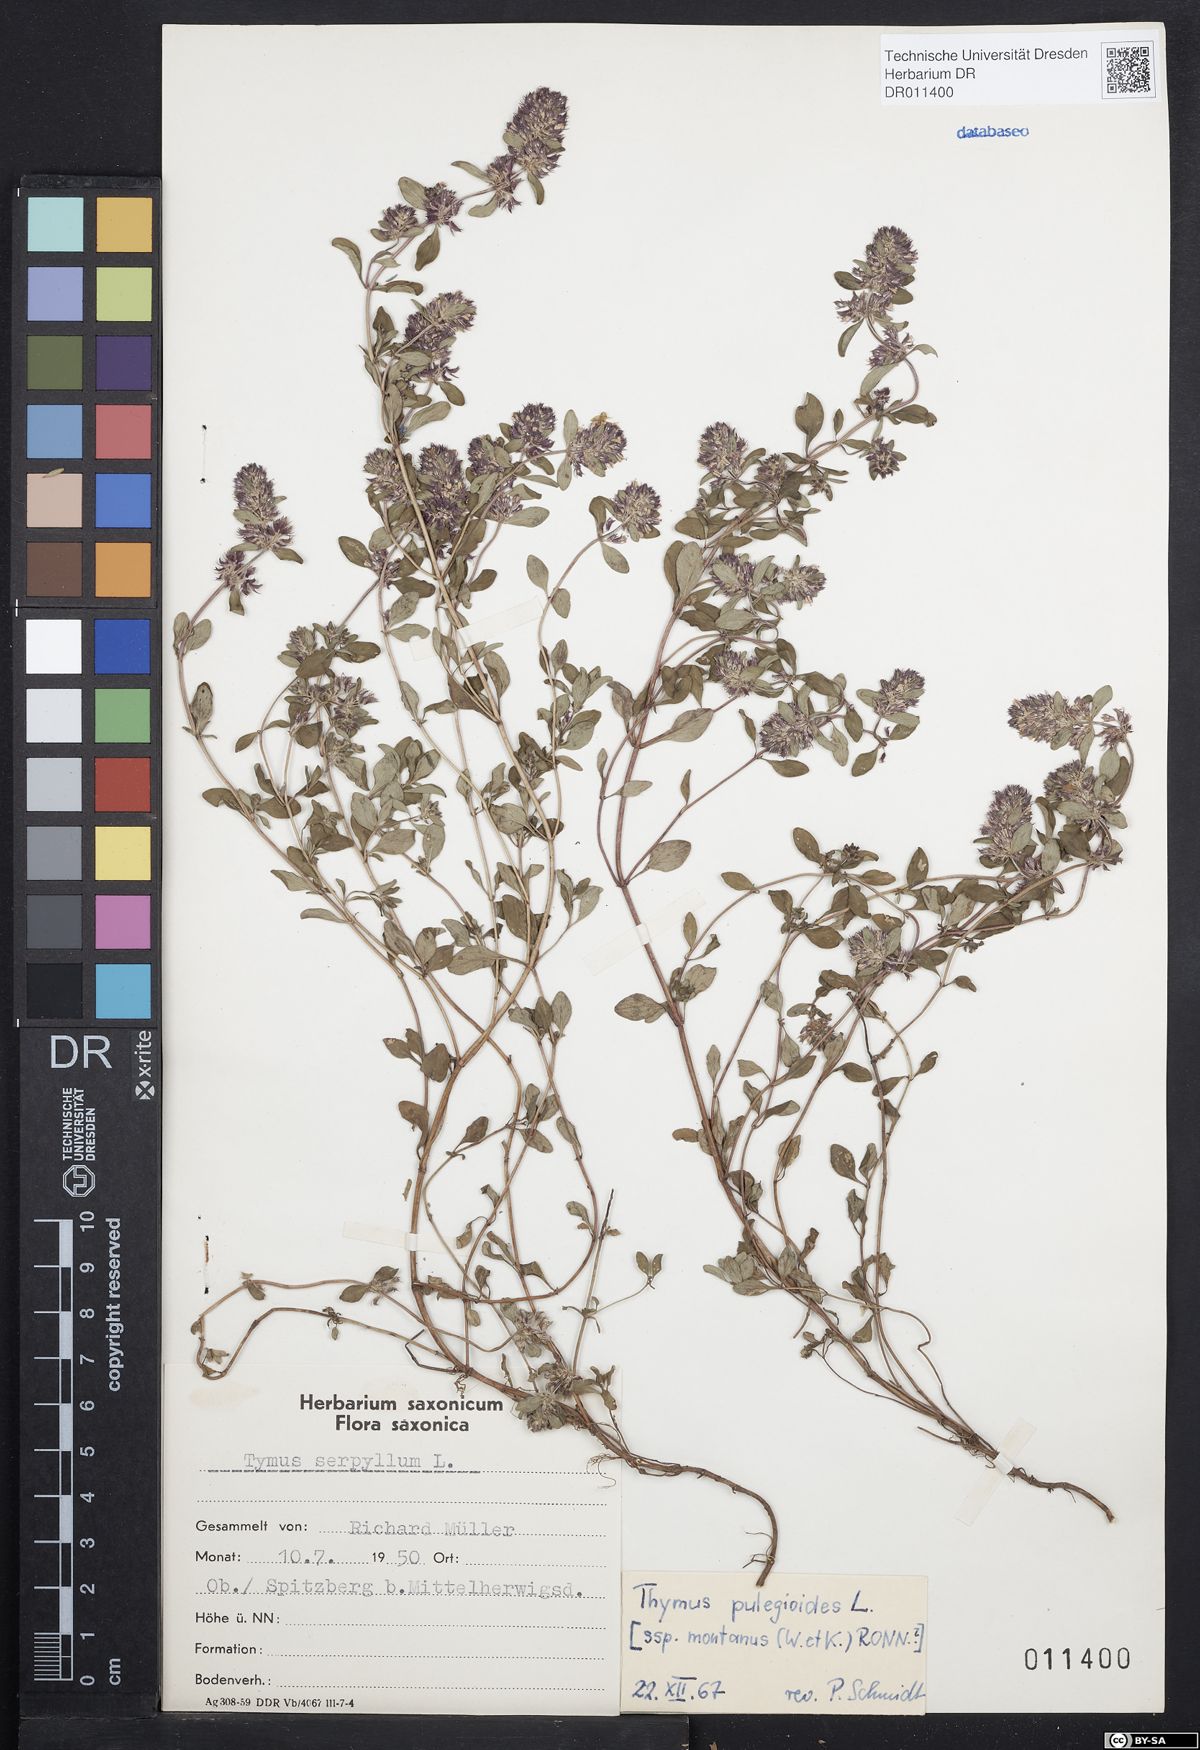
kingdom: Plantae
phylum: Tracheophyta
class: Magnoliopsida
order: Lamiales
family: Lamiaceae
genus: Thymus
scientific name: Thymus pulegioides
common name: Large thyme
